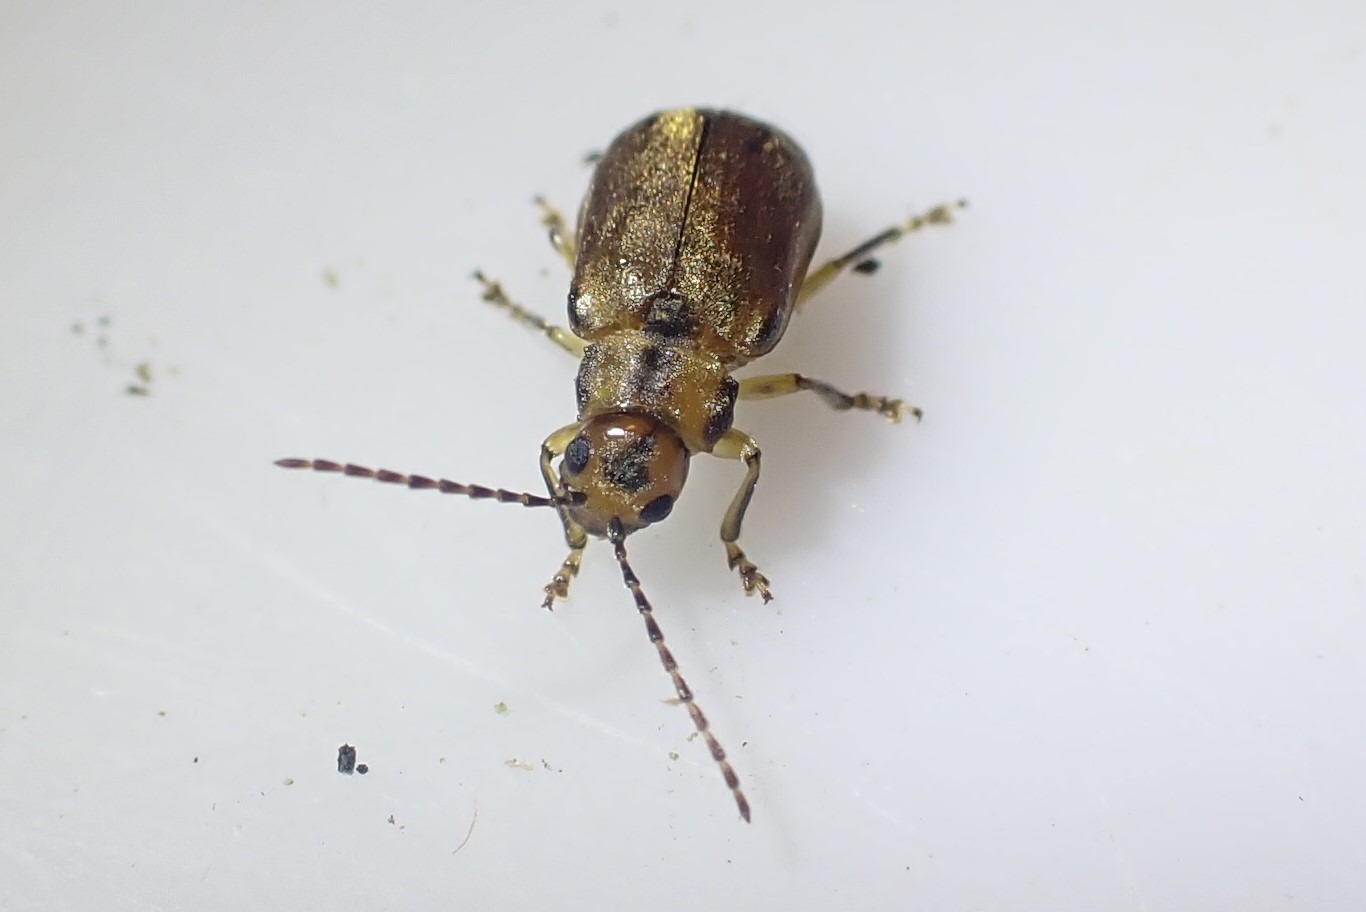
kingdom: Animalia
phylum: Arthropoda
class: Insecta
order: Coleoptera
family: Chrysomelidae
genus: Pyrrhalta
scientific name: Pyrrhalta viburni
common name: Kvalkvedbladbille
